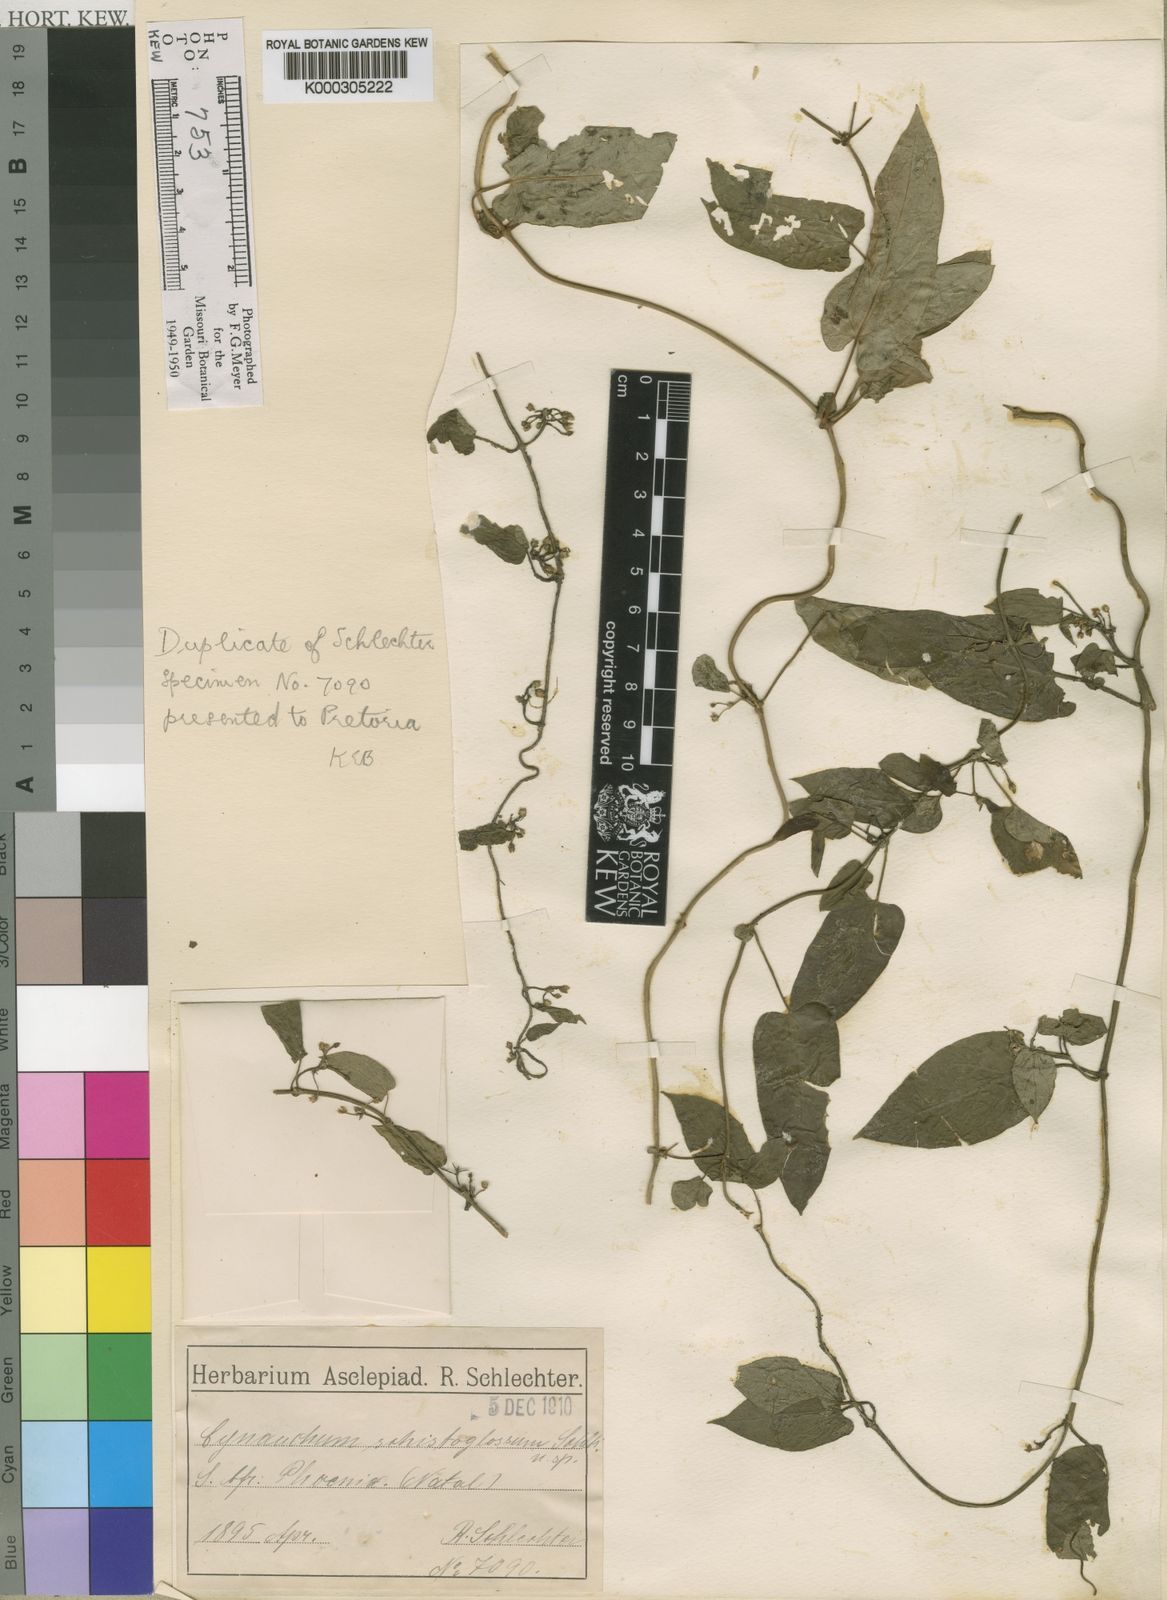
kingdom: Plantae
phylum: Tracheophyta
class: Magnoliopsida
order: Gentianales
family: Apocynaceae
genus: Cynanchum
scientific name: Cynanchum schistoglossum
